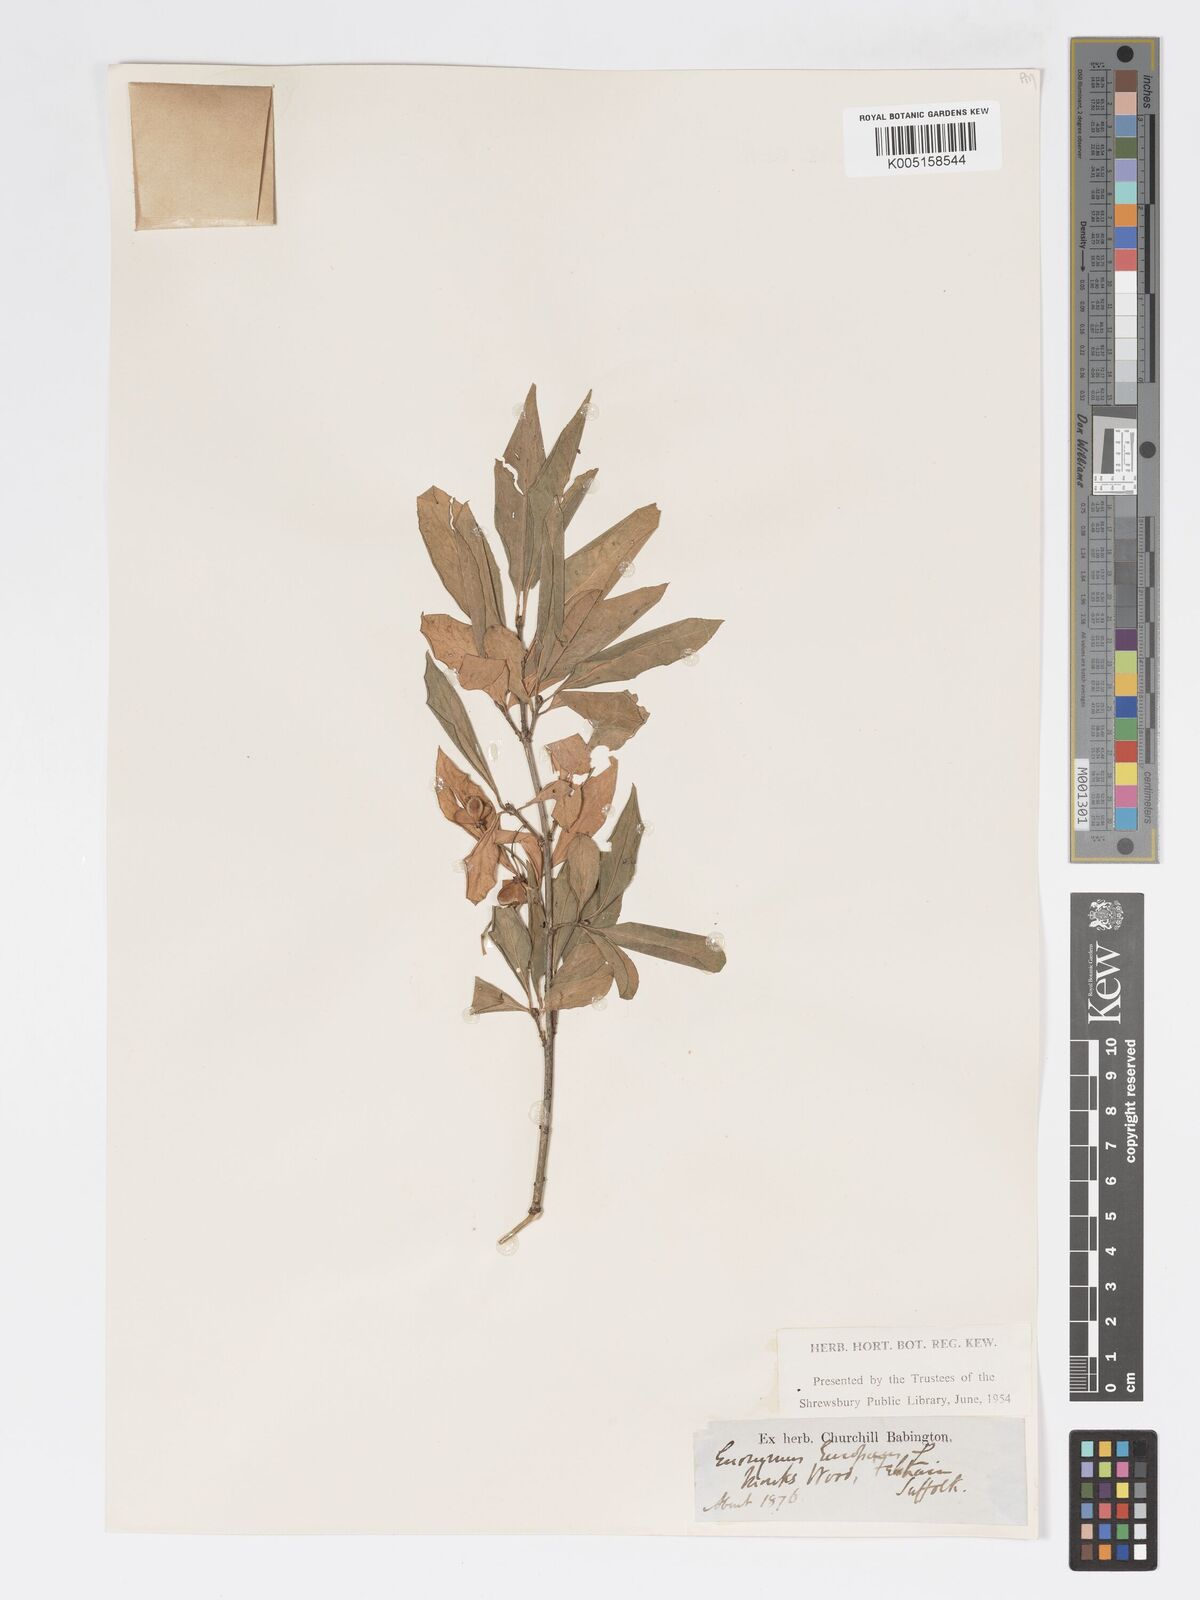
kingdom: Plantae
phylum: Tracheophyta
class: Magnoliopsida
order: Celastrales
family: Celastraceae
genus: Euonymus
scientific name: Euonymus
